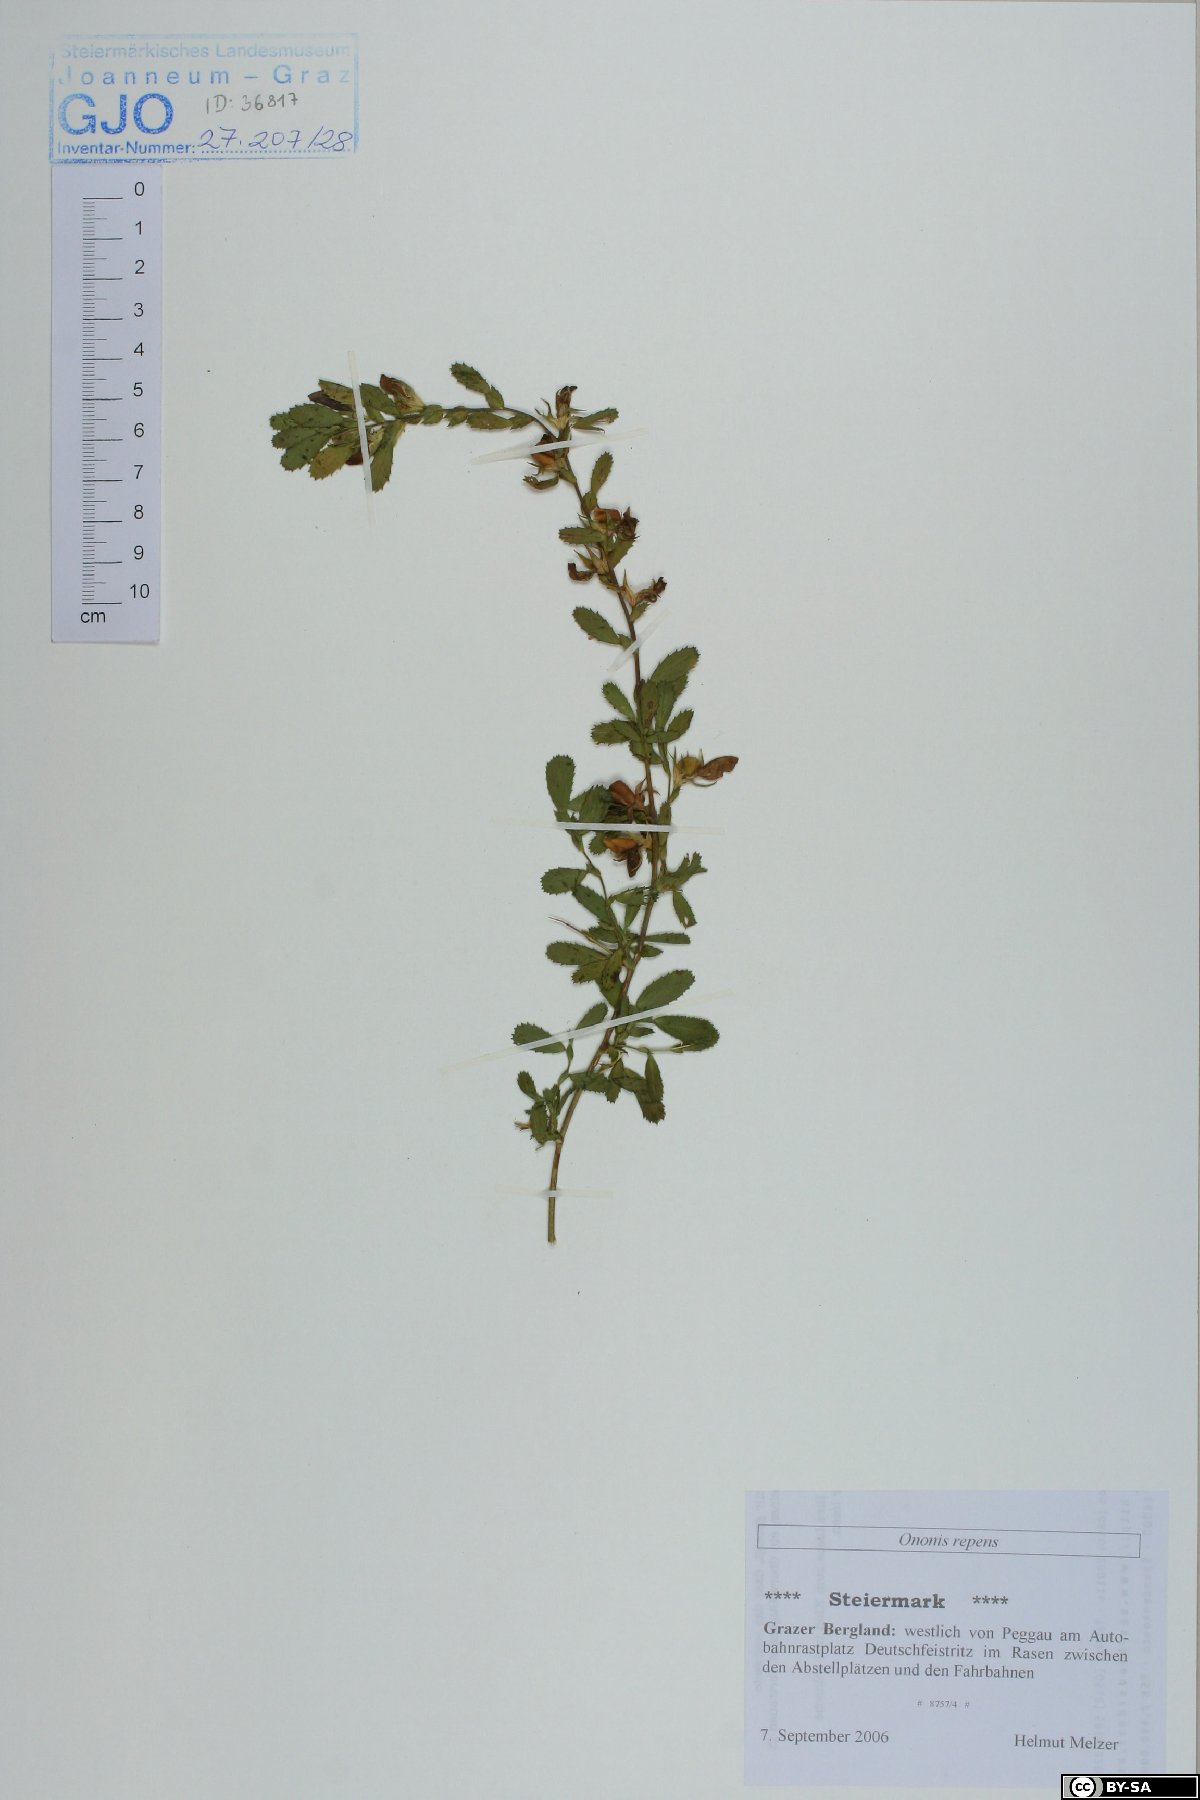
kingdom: Plantae
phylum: Tracheophyta
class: Magnoliopsida
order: Fabales
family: Fabaceae
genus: Ononis
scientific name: Ononis spinosa
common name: Spiny restharrow
